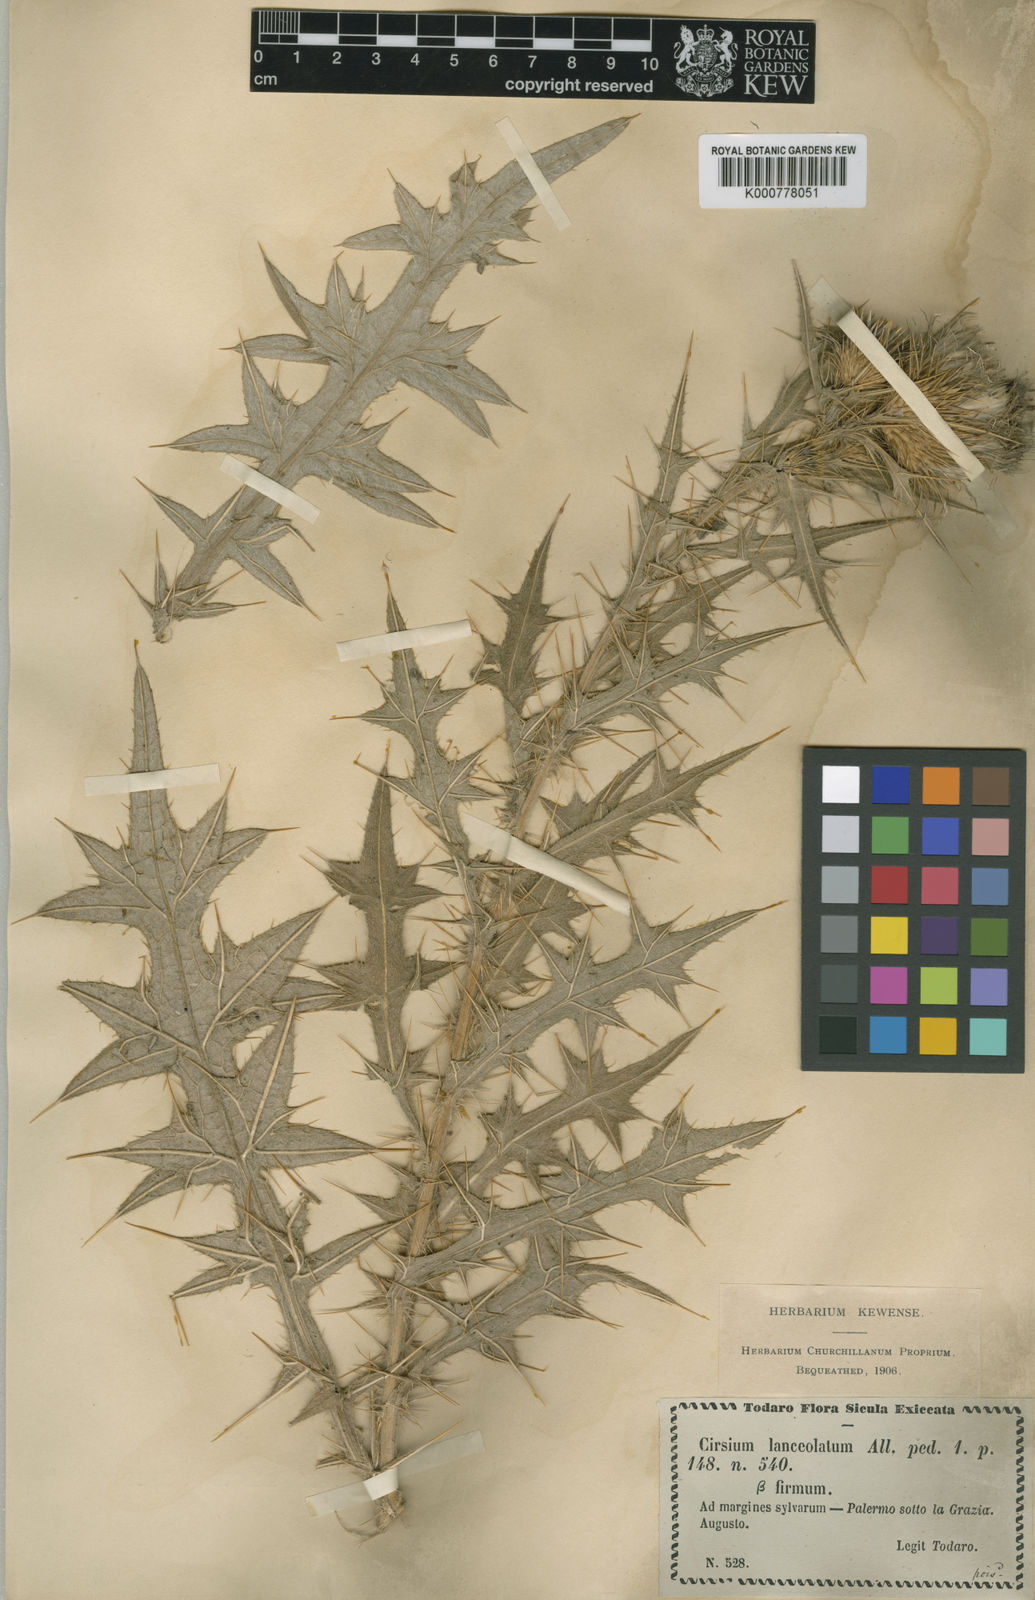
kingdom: Plantae
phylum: Tracheophyta
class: Magnoliopsida
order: Asterales
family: Asteraceae
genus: Cirsium
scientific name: Cirsium
